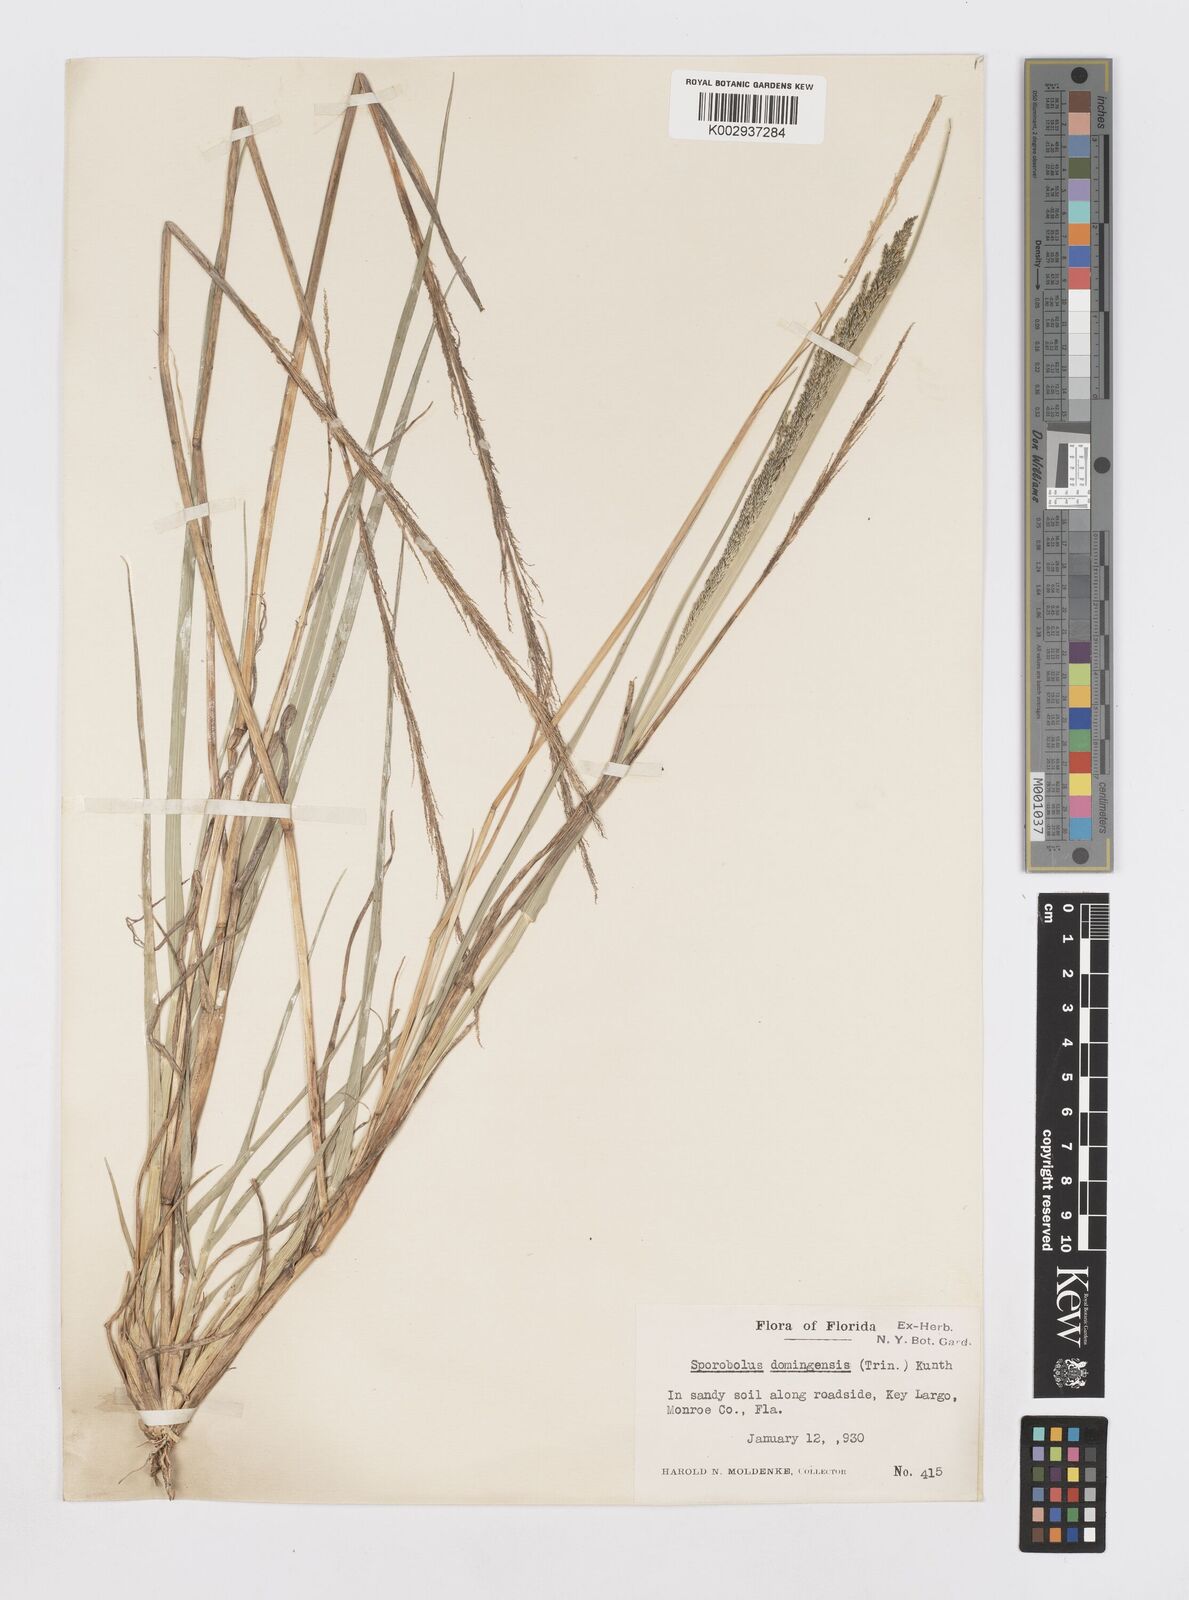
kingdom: Plantae
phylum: Tracheophyta
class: Liliopsida
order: Poales
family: Poaceae
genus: Sporobolus
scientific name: Sporobolus domingensis
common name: Coral dropseed
